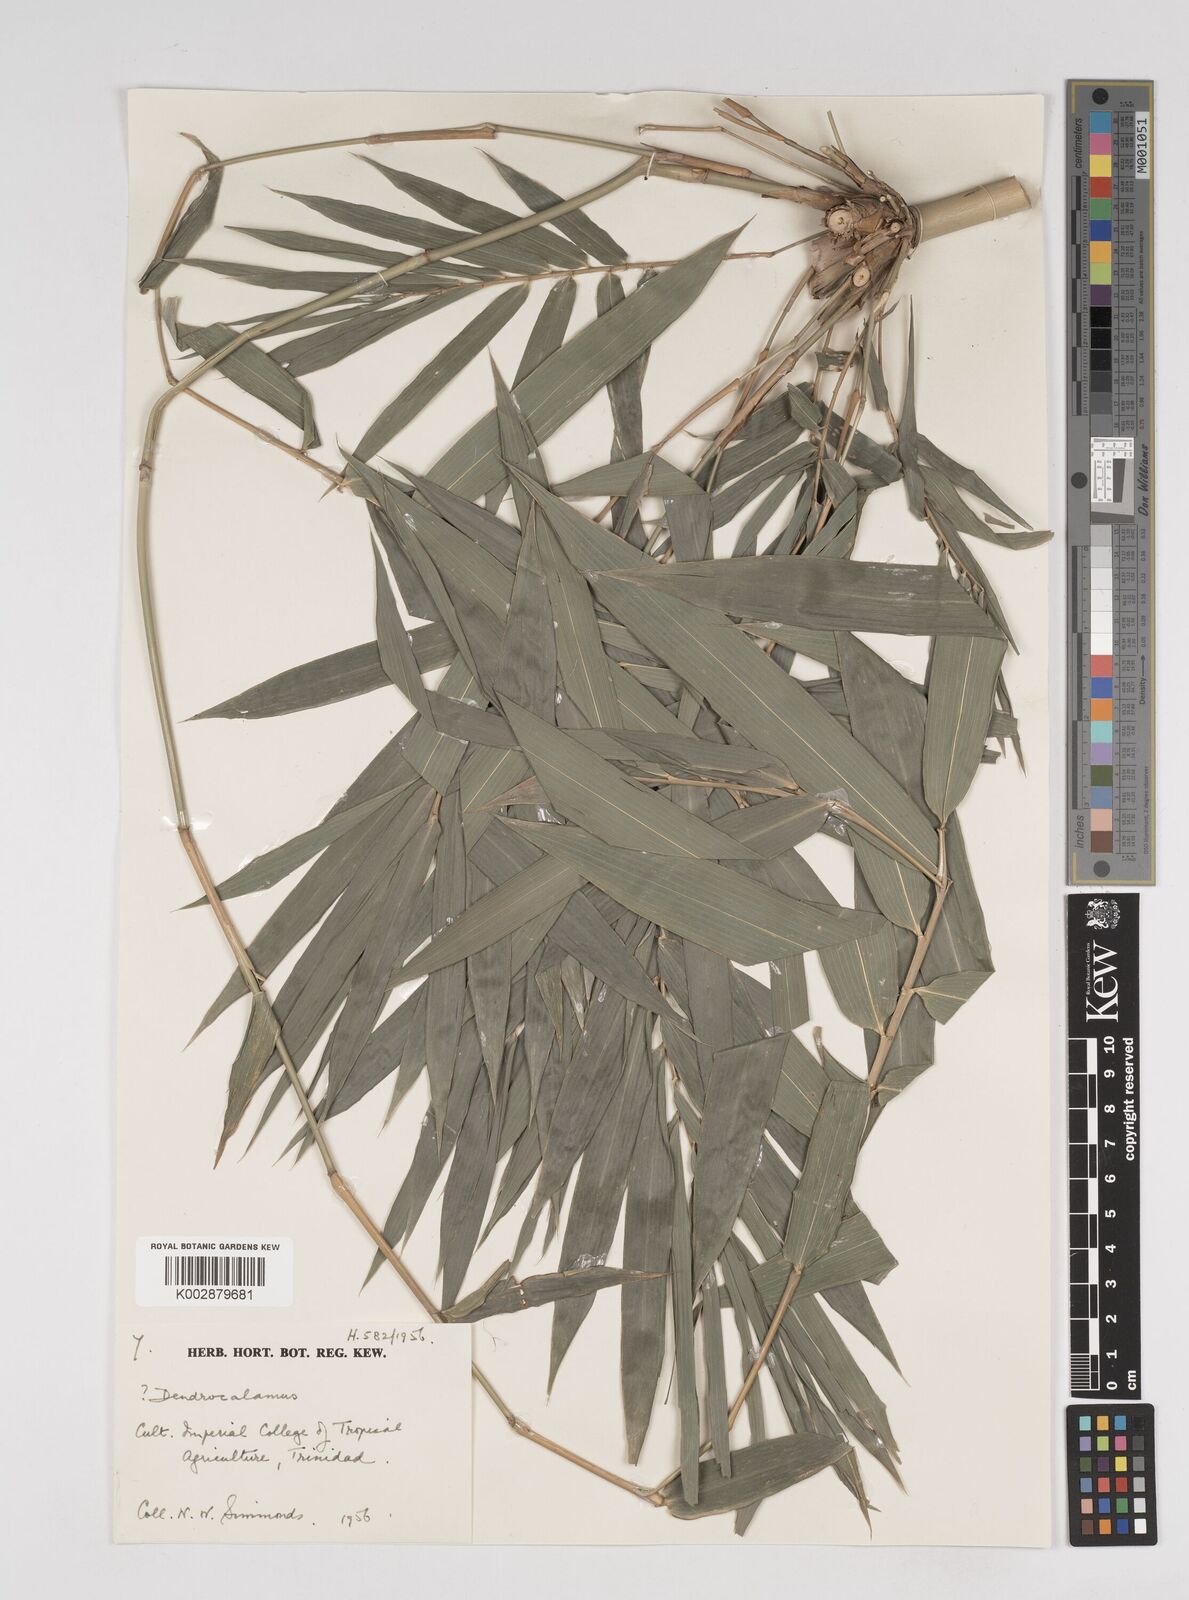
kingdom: Plantae
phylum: Tracheophyta
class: Liliopsida
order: Poales
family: Poaceae
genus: Dendrocalamus
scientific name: Dendrocalamus
